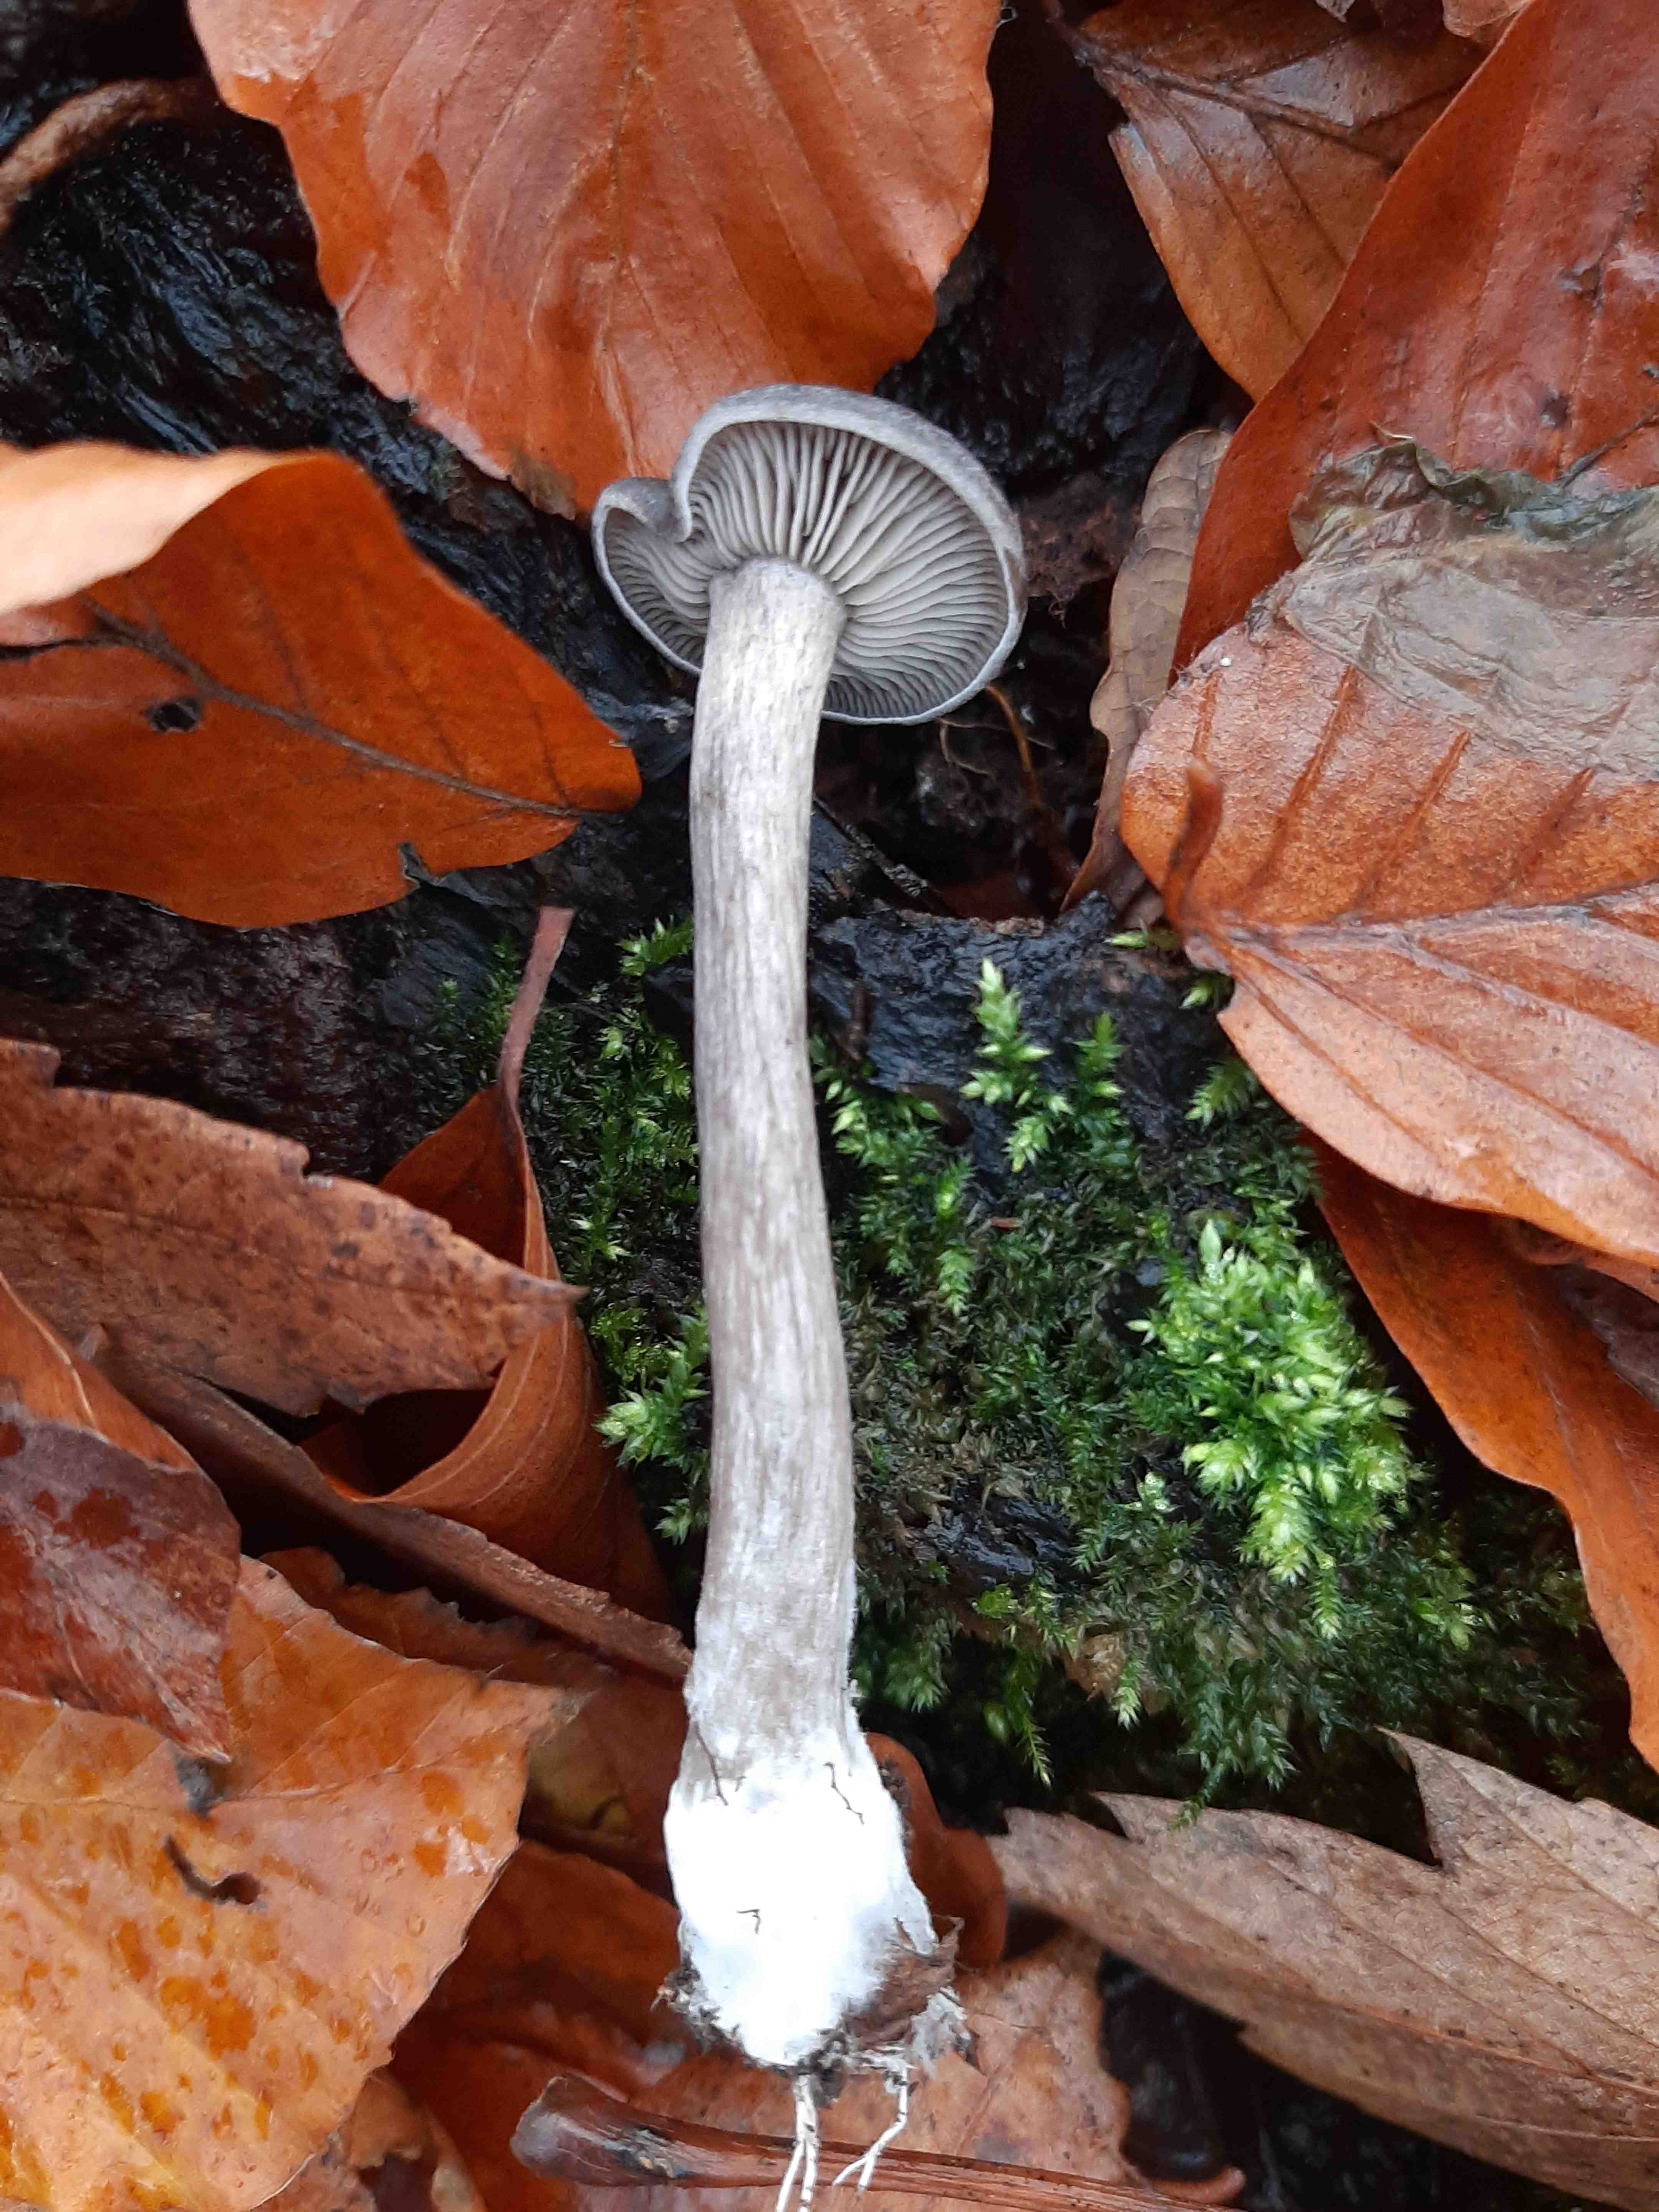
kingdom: Fungi
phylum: Basidiomycota
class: Agaricomycetes
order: Agaricales
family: Pseudoclitocybaceae
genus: Pseudoclitocybe
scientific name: Pseudoclitocybe cyathiformis
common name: almindelig bægertragthat
